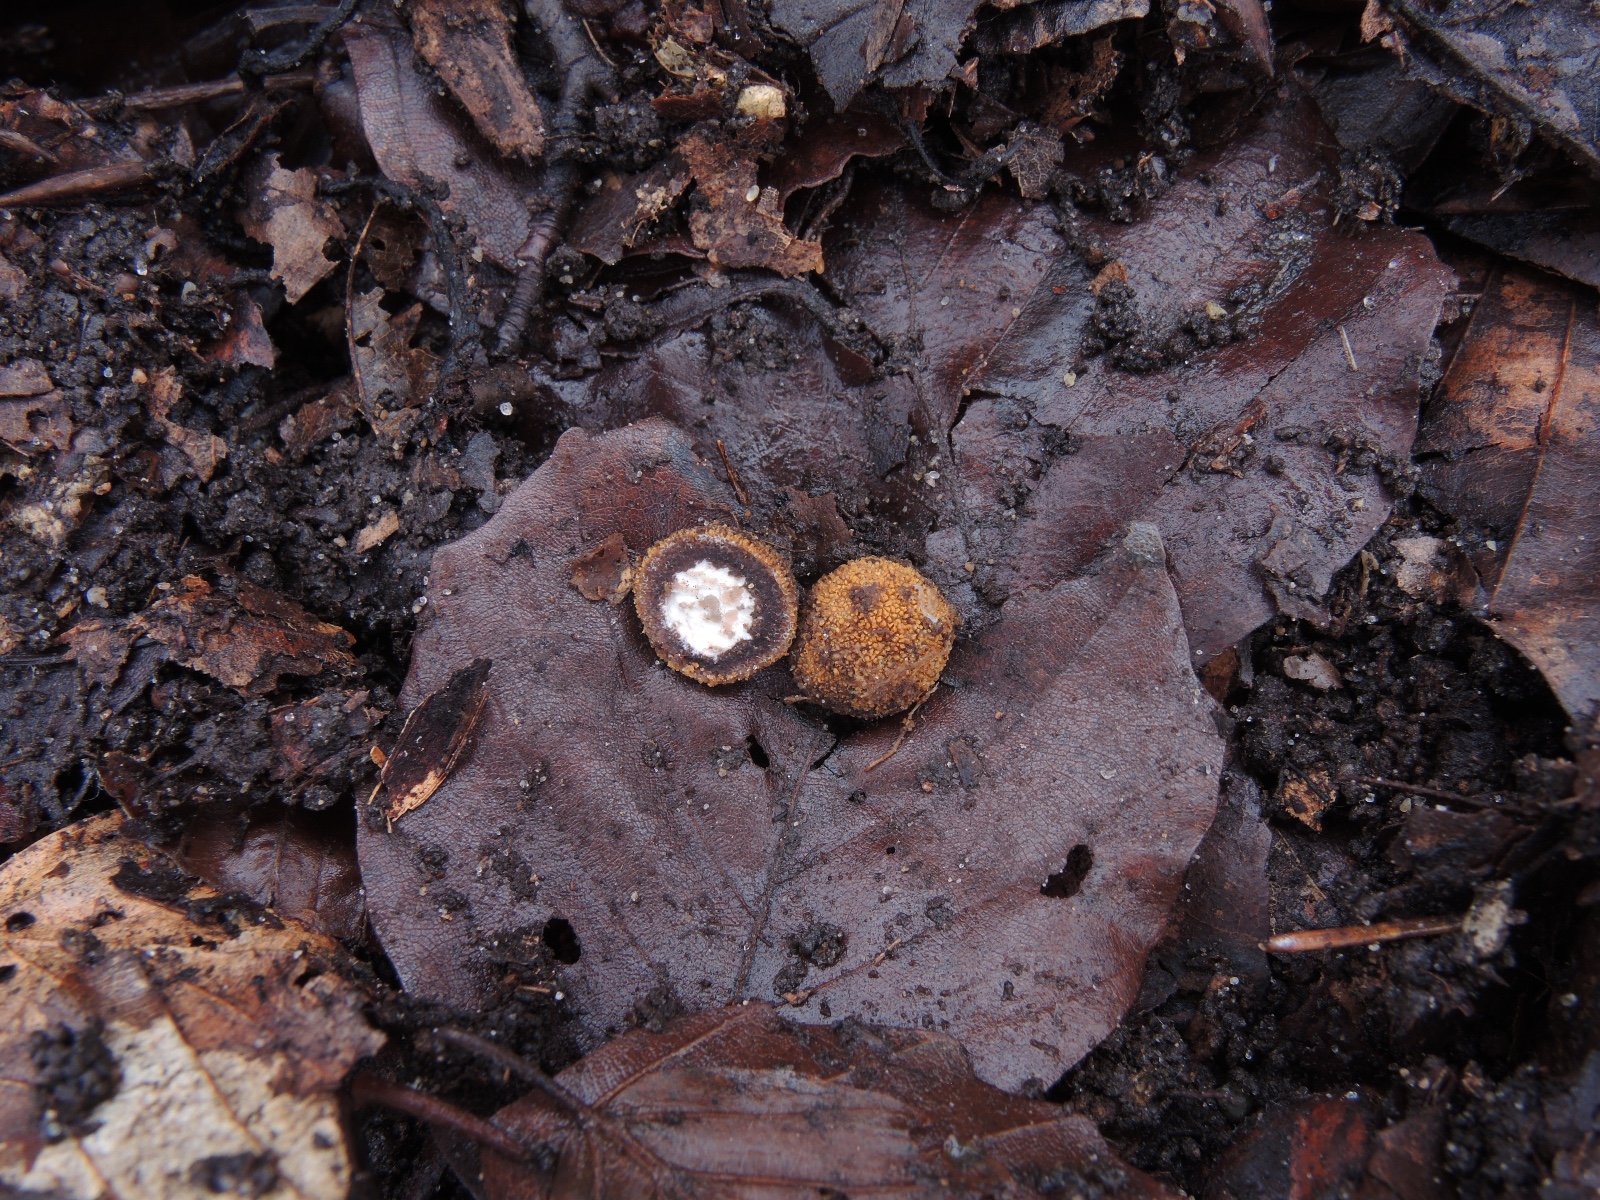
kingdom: Fungi
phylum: Ascomycota
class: Eurotiomycetes
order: Eurotiales
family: Elaphomycetaceae
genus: Elaphomyces
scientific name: Elaphomyces muricatus
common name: vortet hjortetrøffel
